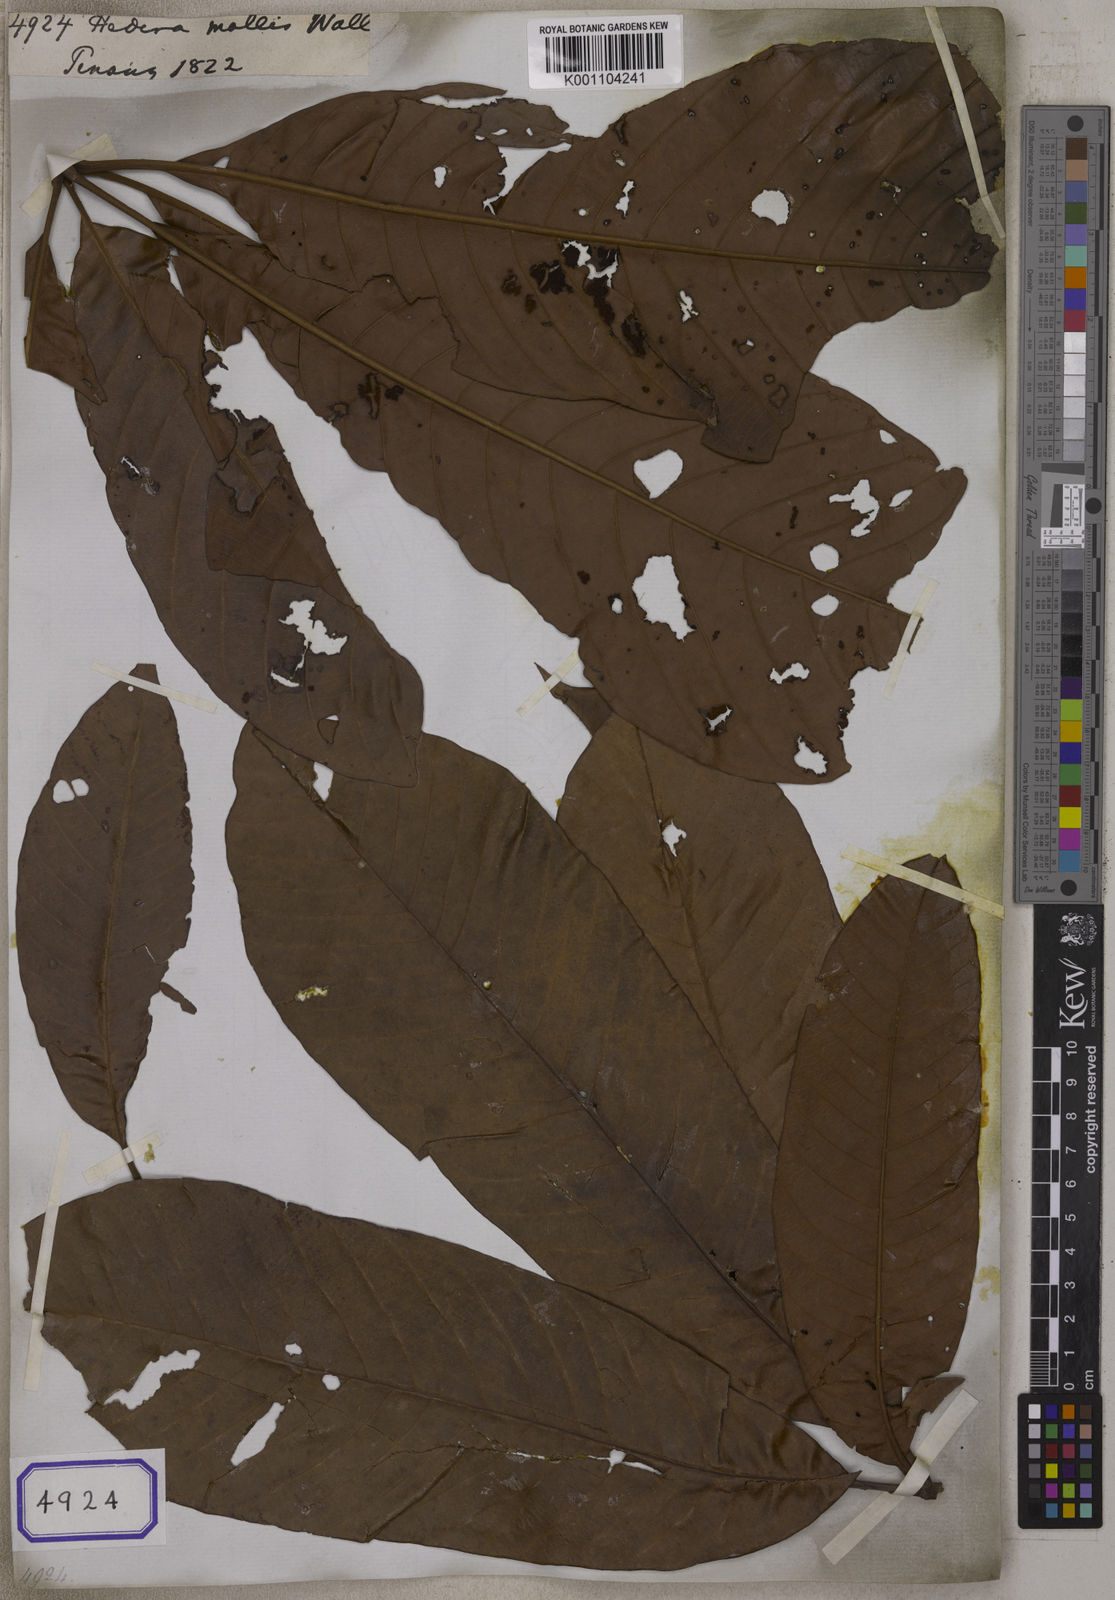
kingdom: Plantae
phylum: Tracheophyta
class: Magnoliopsida
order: Apiales
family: Araliaceae
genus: Hedera
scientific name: Hedera
